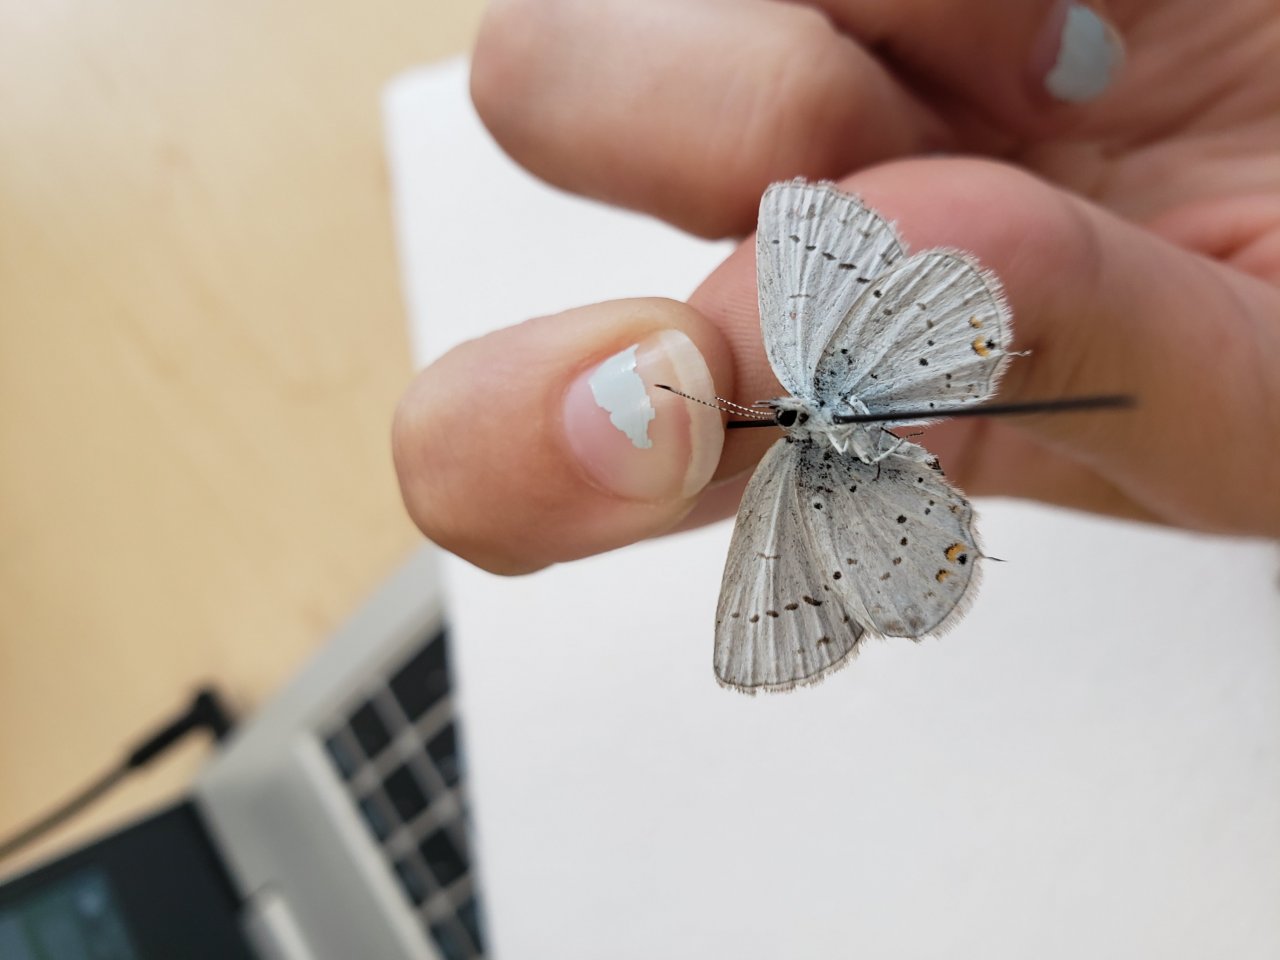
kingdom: Animalia
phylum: Arthropoda
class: Insecta
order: Lepidoptera
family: Lycaenidae
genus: Elkalyce
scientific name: Elkalyce amyntula
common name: Western Tailed-Blue
